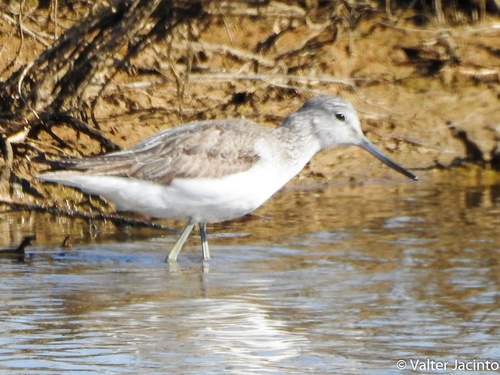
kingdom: Animalia
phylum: Chordata
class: Aves
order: Charadriiformes
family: Scolopacidae
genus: Tringa
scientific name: Tringa nebularia
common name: Common greenshank
